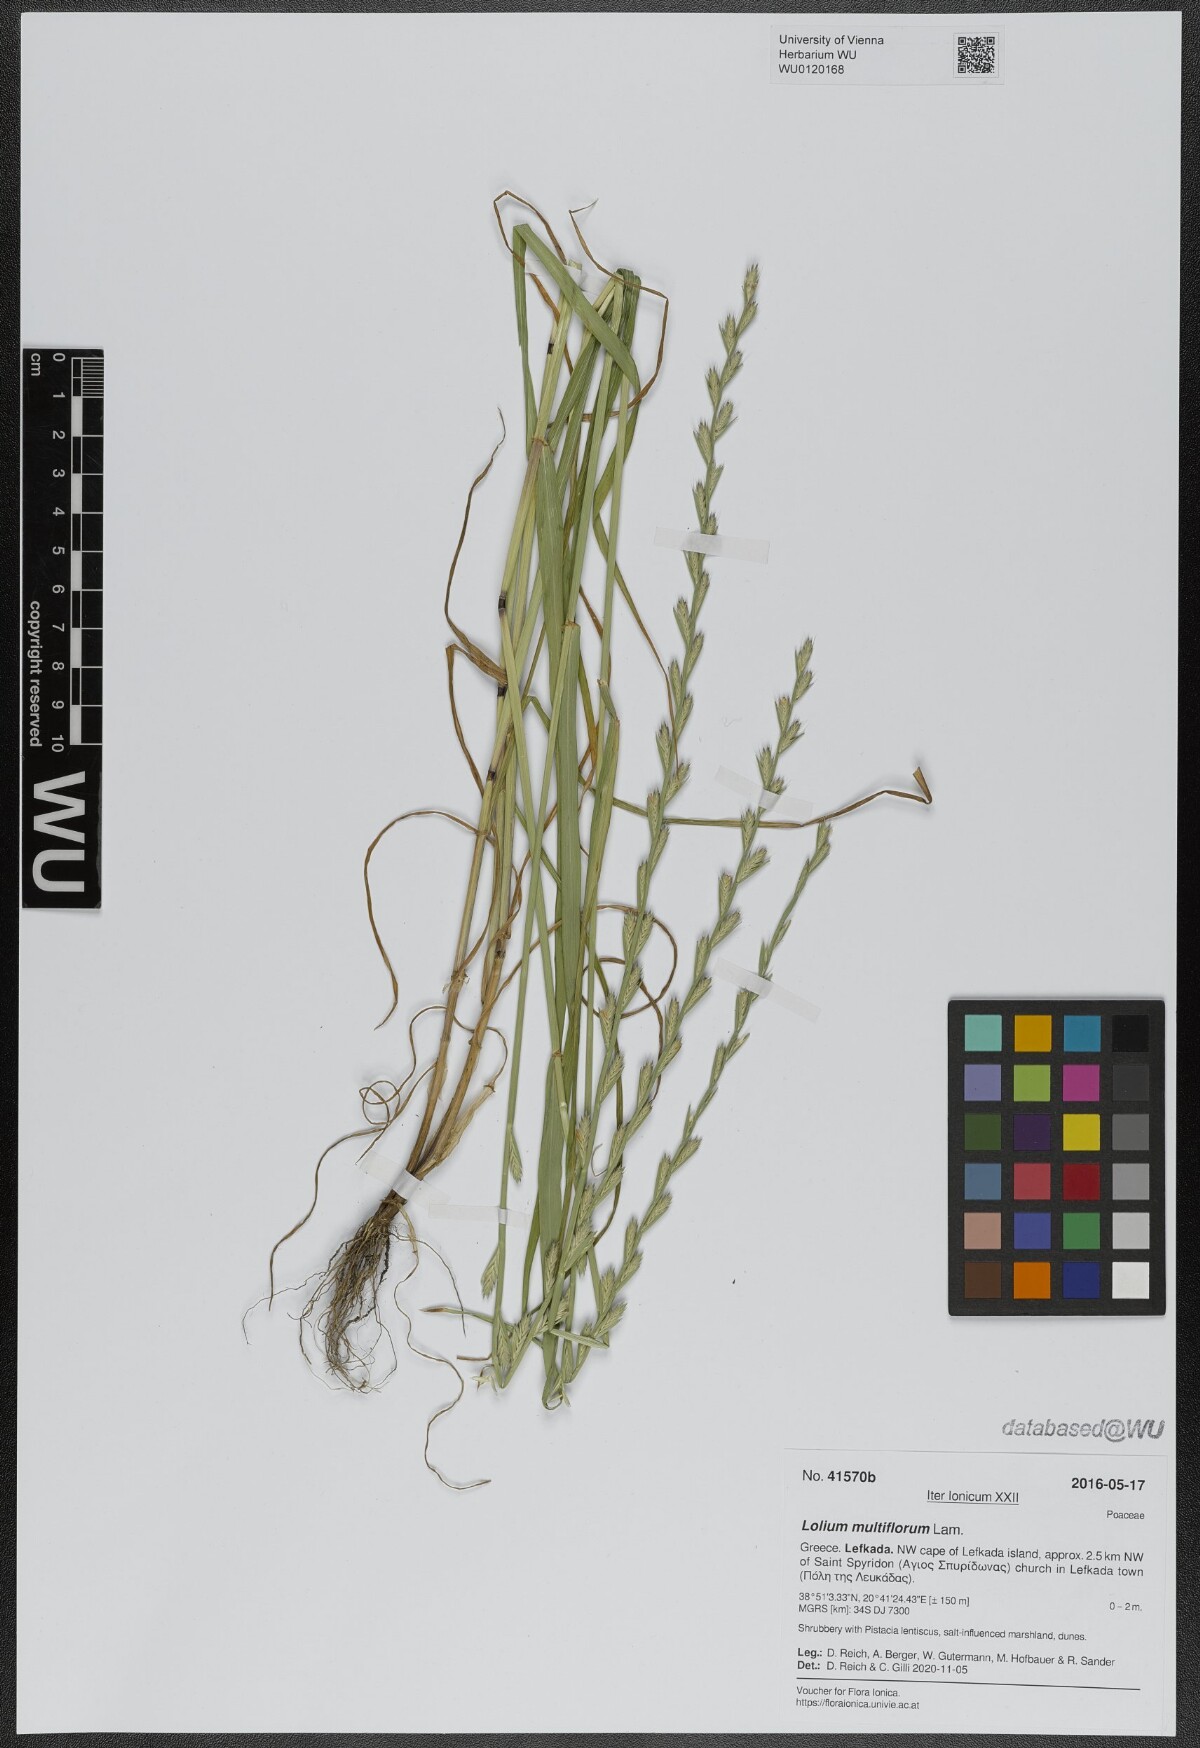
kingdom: Plantae
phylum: Tracheophyta
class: Liliopsida
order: Poales
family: Poaceae
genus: Lolium
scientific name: Lolium multiflorum
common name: Annual ryegrass
